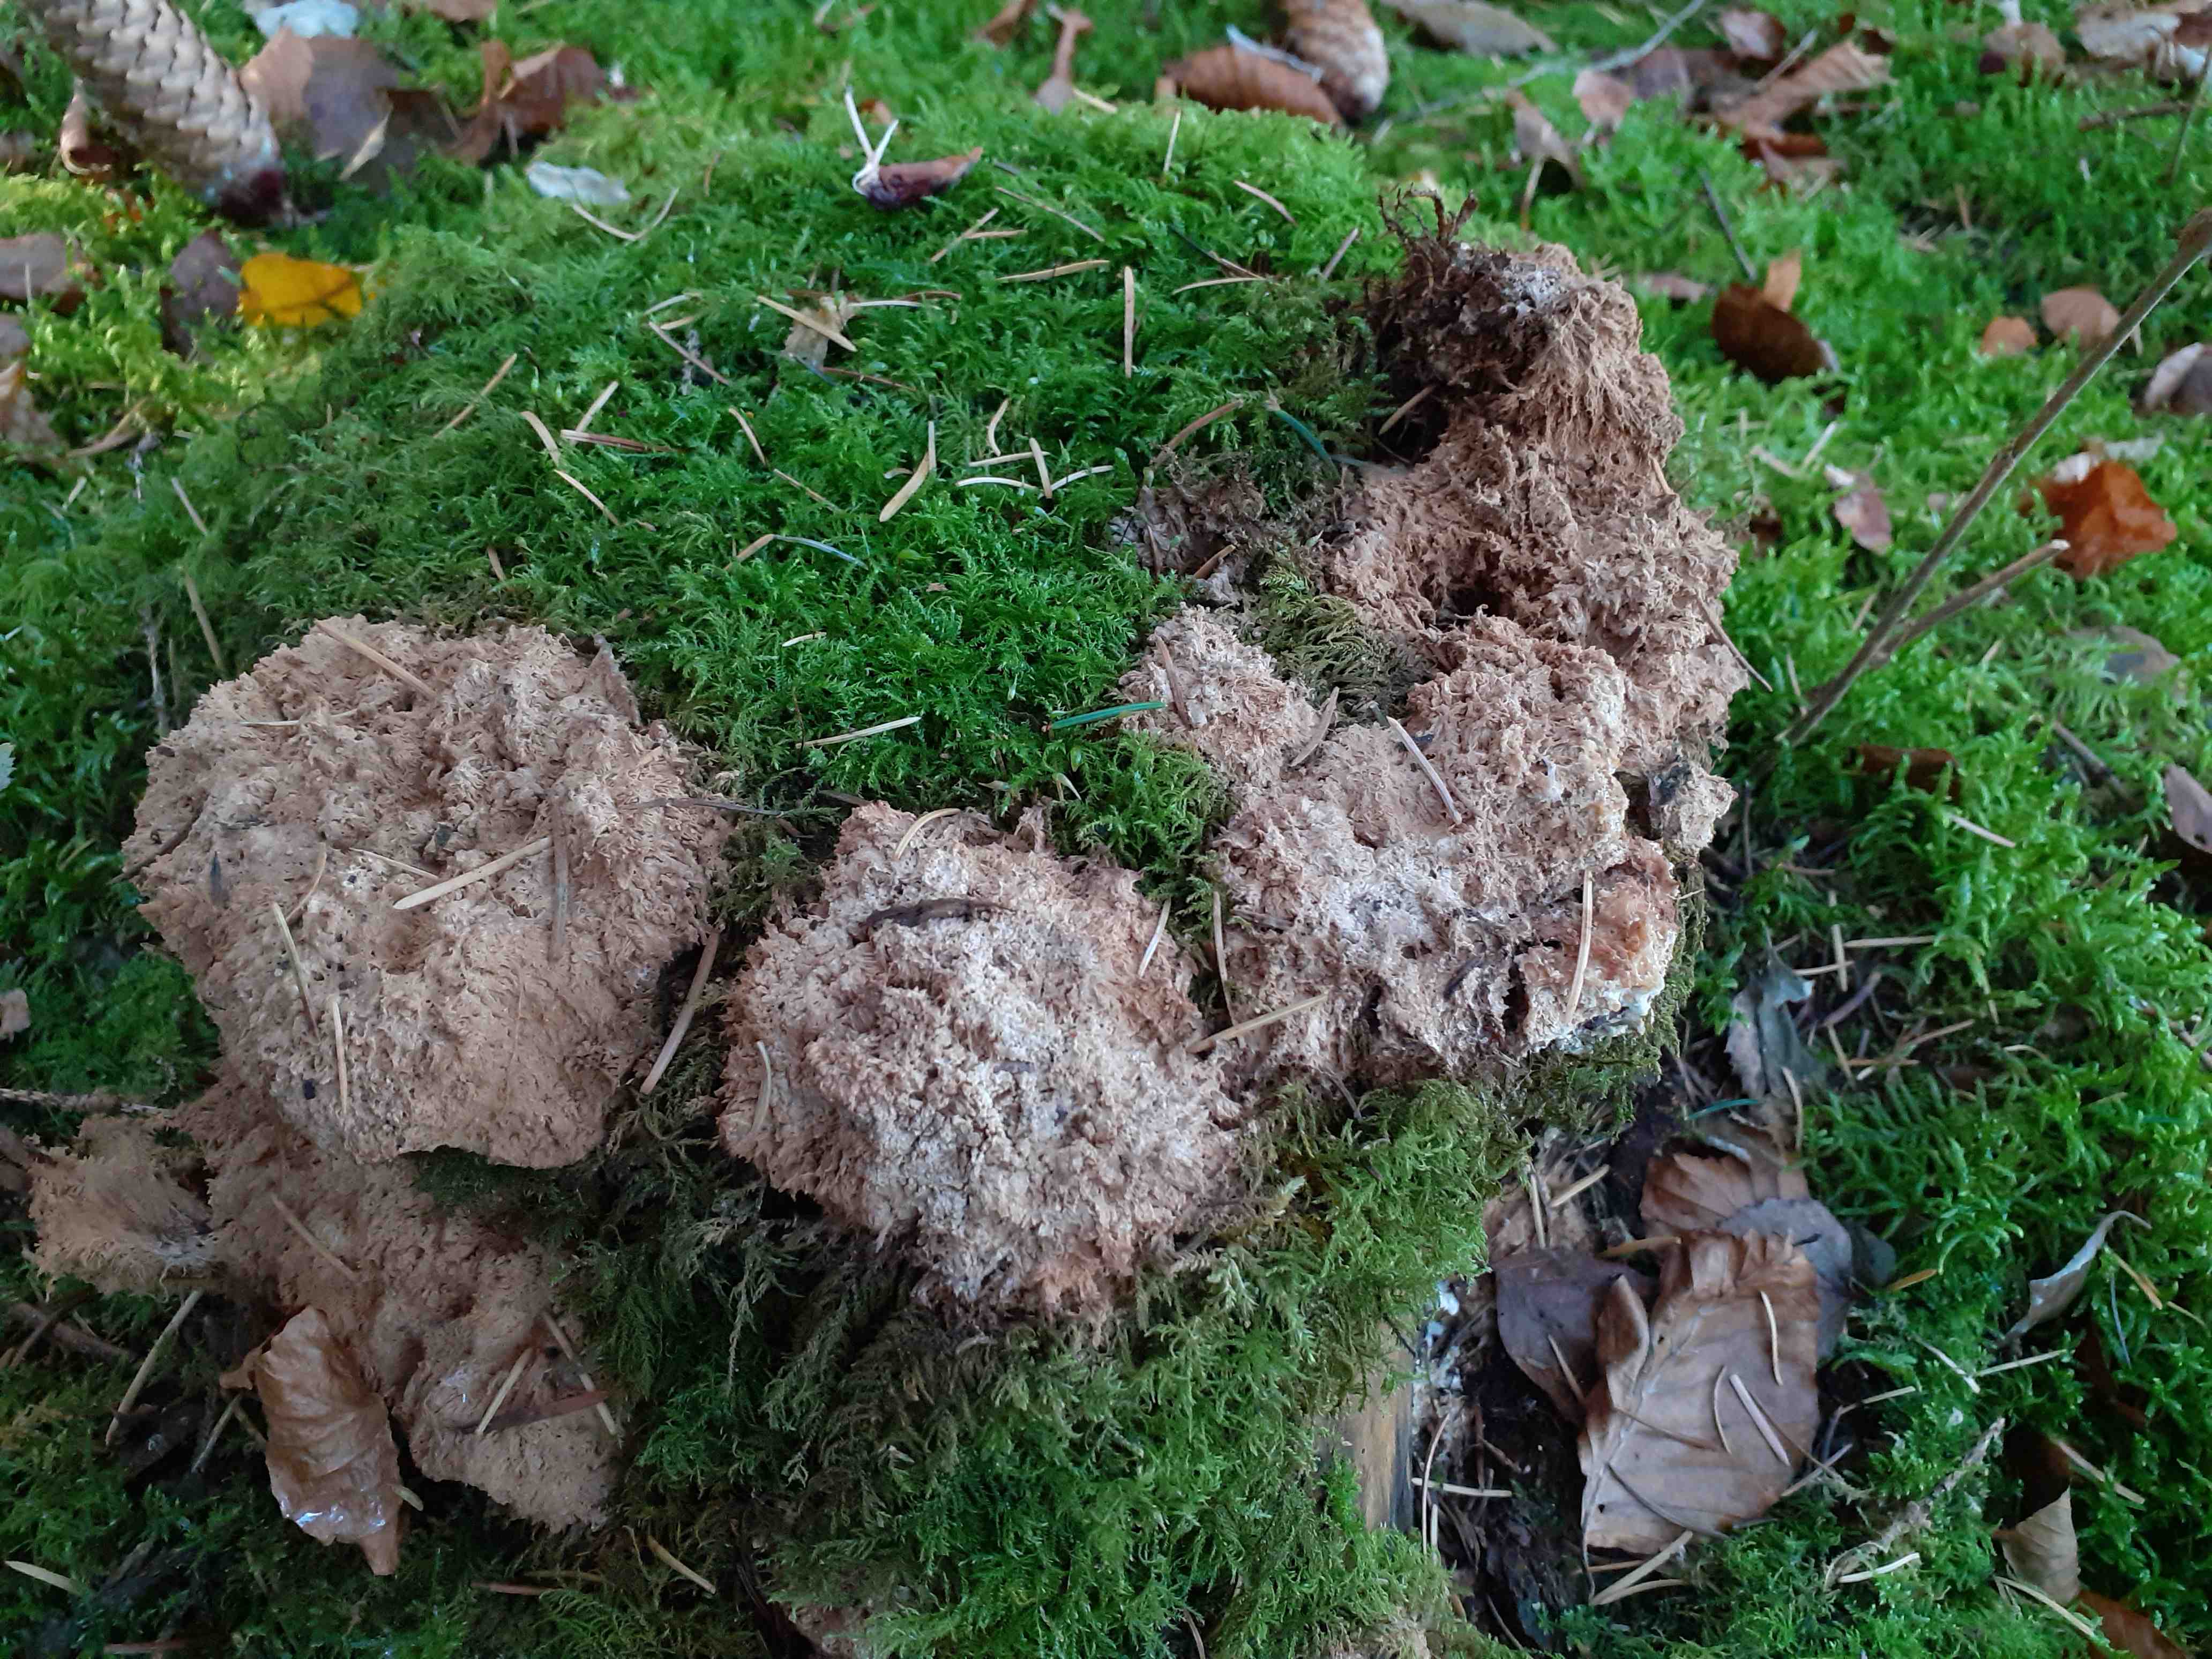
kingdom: Fungi
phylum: Basidiomycota
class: Agaricomycetes
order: Polyporales
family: Dacryobolaceae
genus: Postia
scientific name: Postia ptychogaster
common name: støvende kødporesvamp
